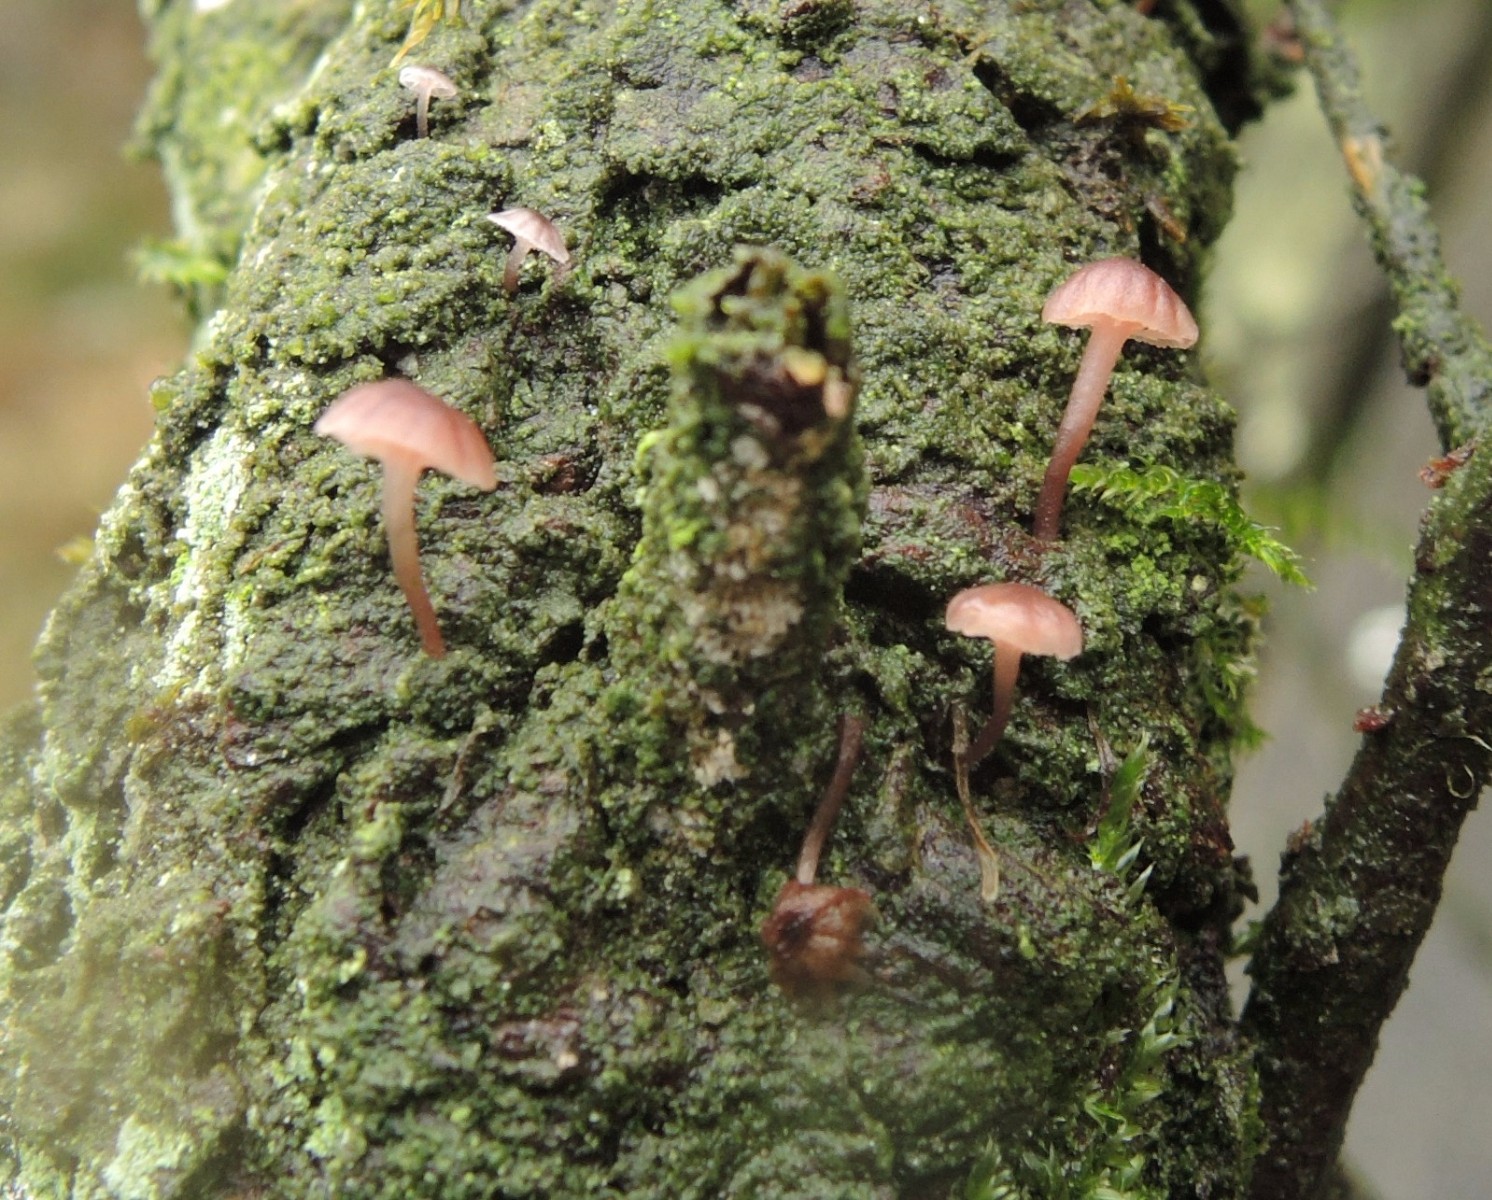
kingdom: Fungi
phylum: Basidiomycota
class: Agaricomycetes
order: Agaricales
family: Mycenaceae
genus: Mycena
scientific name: Mycena meliigena
